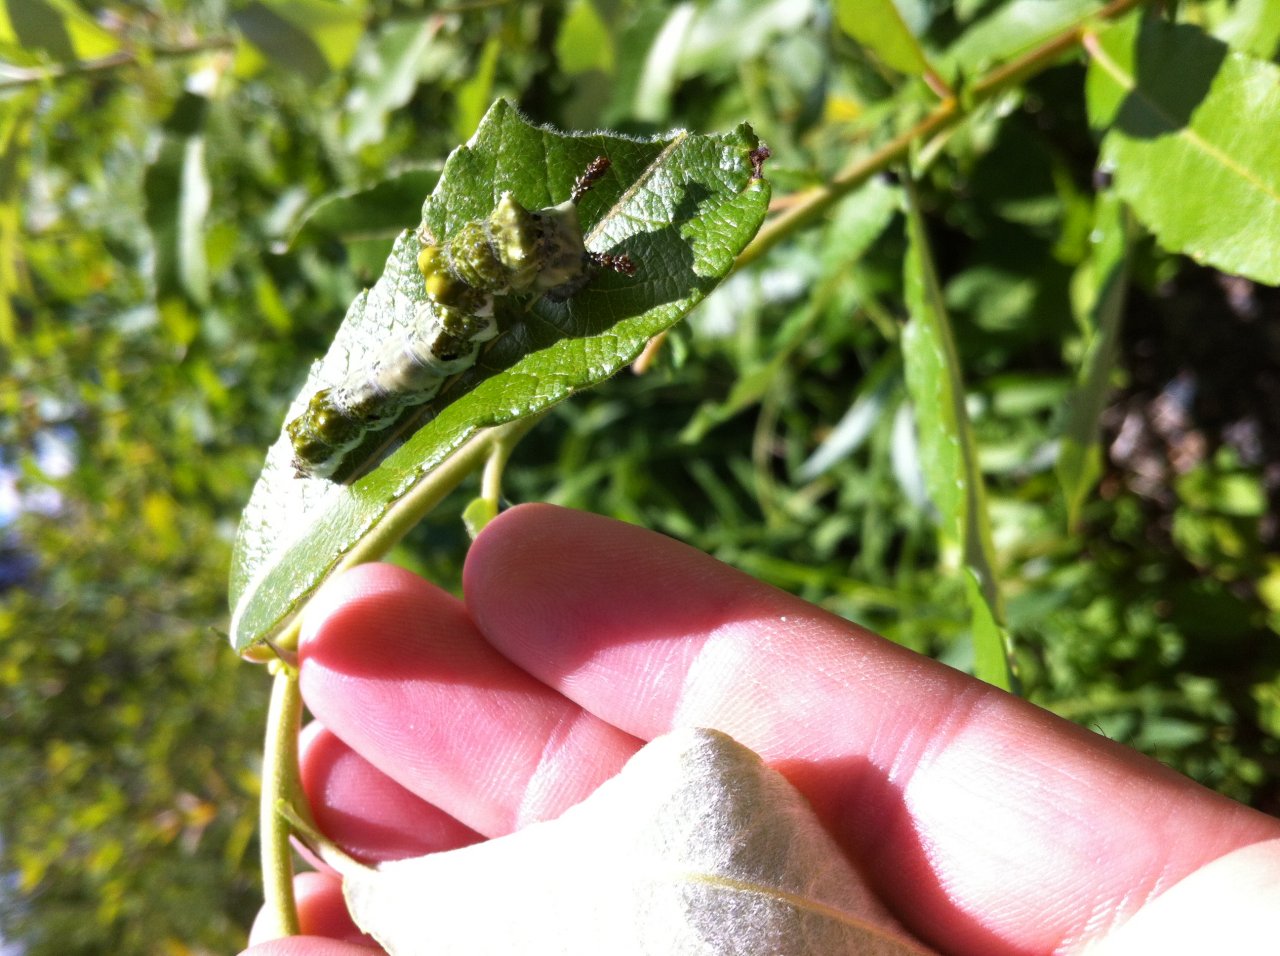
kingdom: Animalia
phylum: Arthropoda
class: Insecta
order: Lepidoptera
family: Nymphalidae
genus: Limenitis
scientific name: Limenitis arthemis
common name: Red-spotted Admiral
